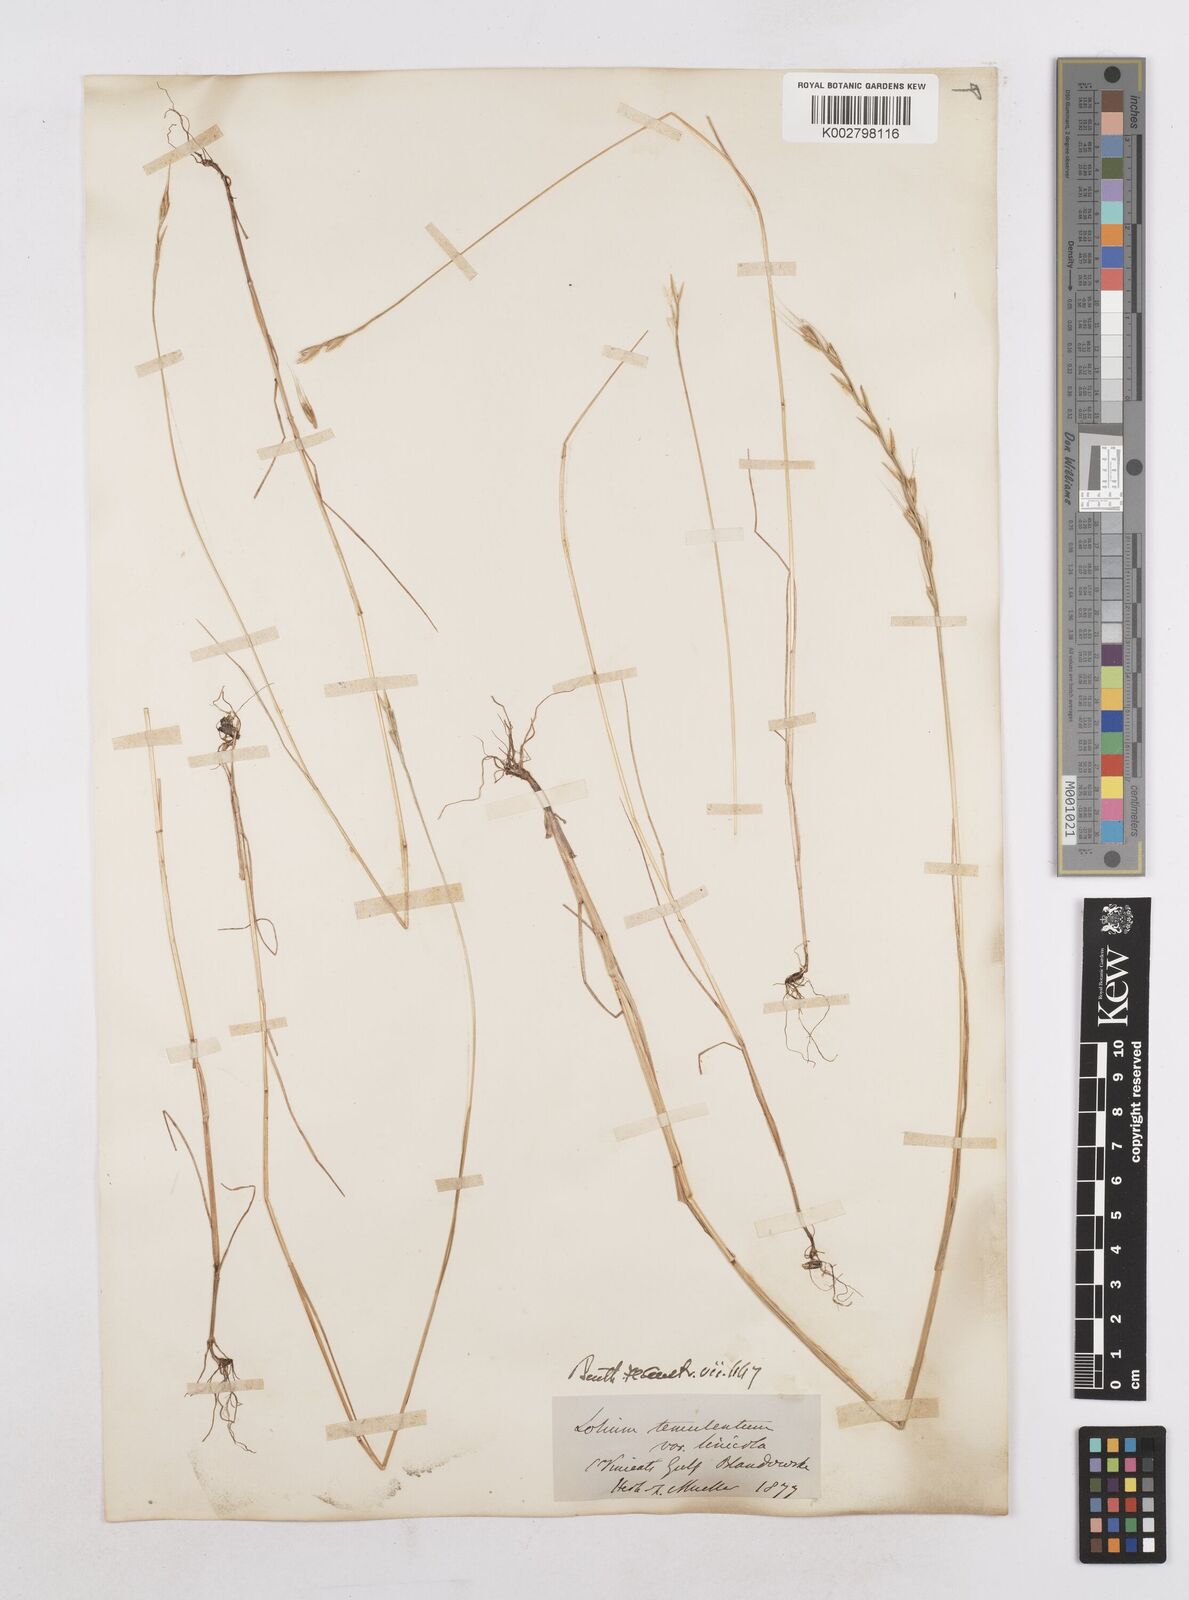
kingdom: Plantae
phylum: Tracheophyta
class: Liliopsida
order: Poales
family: Poaceae
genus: Lolium
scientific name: Lolium temulentum
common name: Darnel
